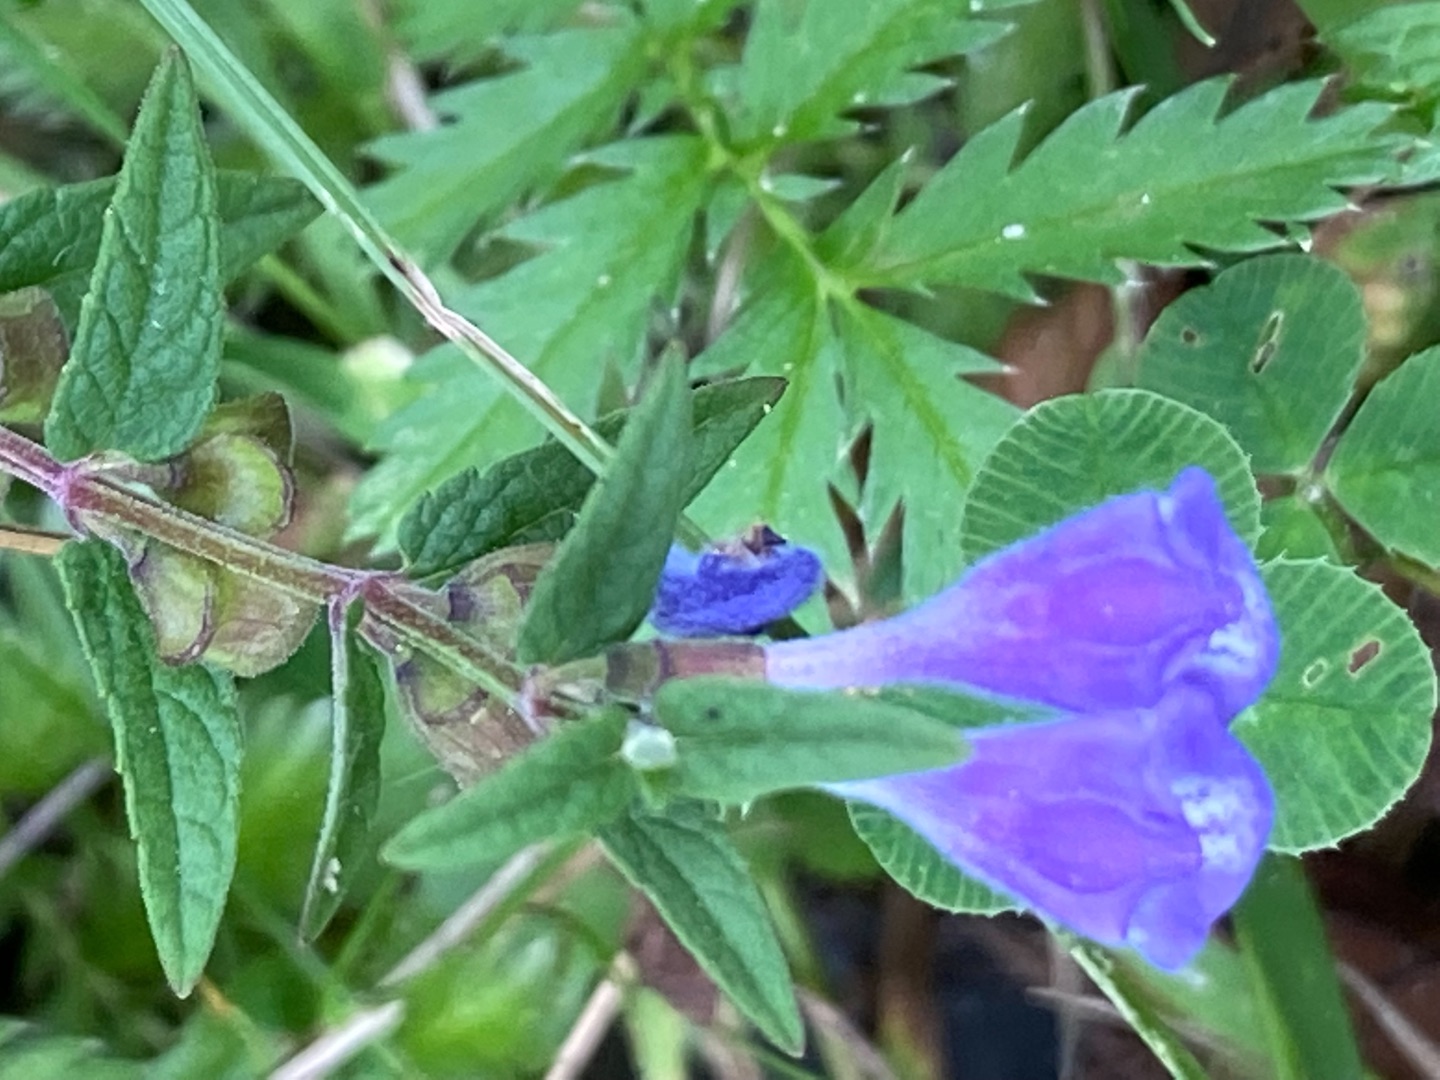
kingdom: Plantae
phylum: Tracheophyta
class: Magnoliopsida
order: Lamiales
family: Lamiaceae
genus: Scutellaria
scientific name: Scutellaria galericulata
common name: Almindelig skjolddrager
